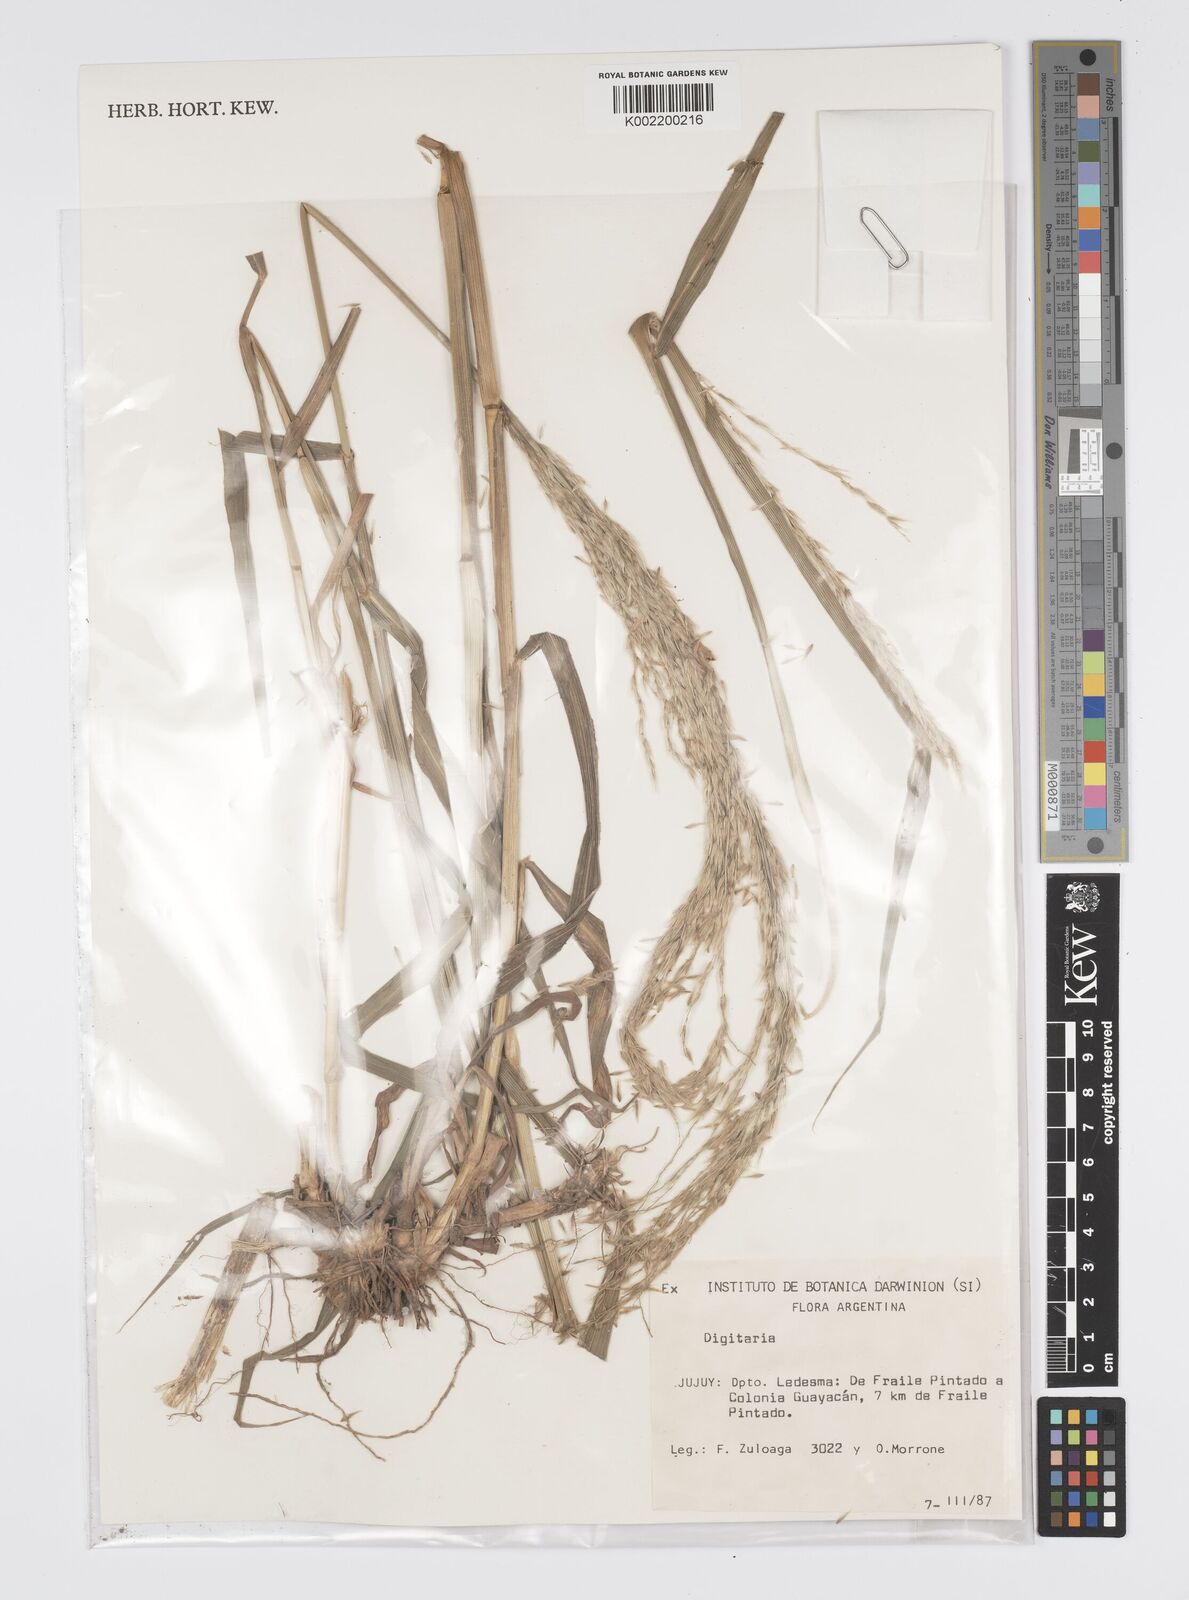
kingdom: Plantae
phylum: Tracheophyta
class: Liliopsida
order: Poales
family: Poaceae
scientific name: Poaceae
